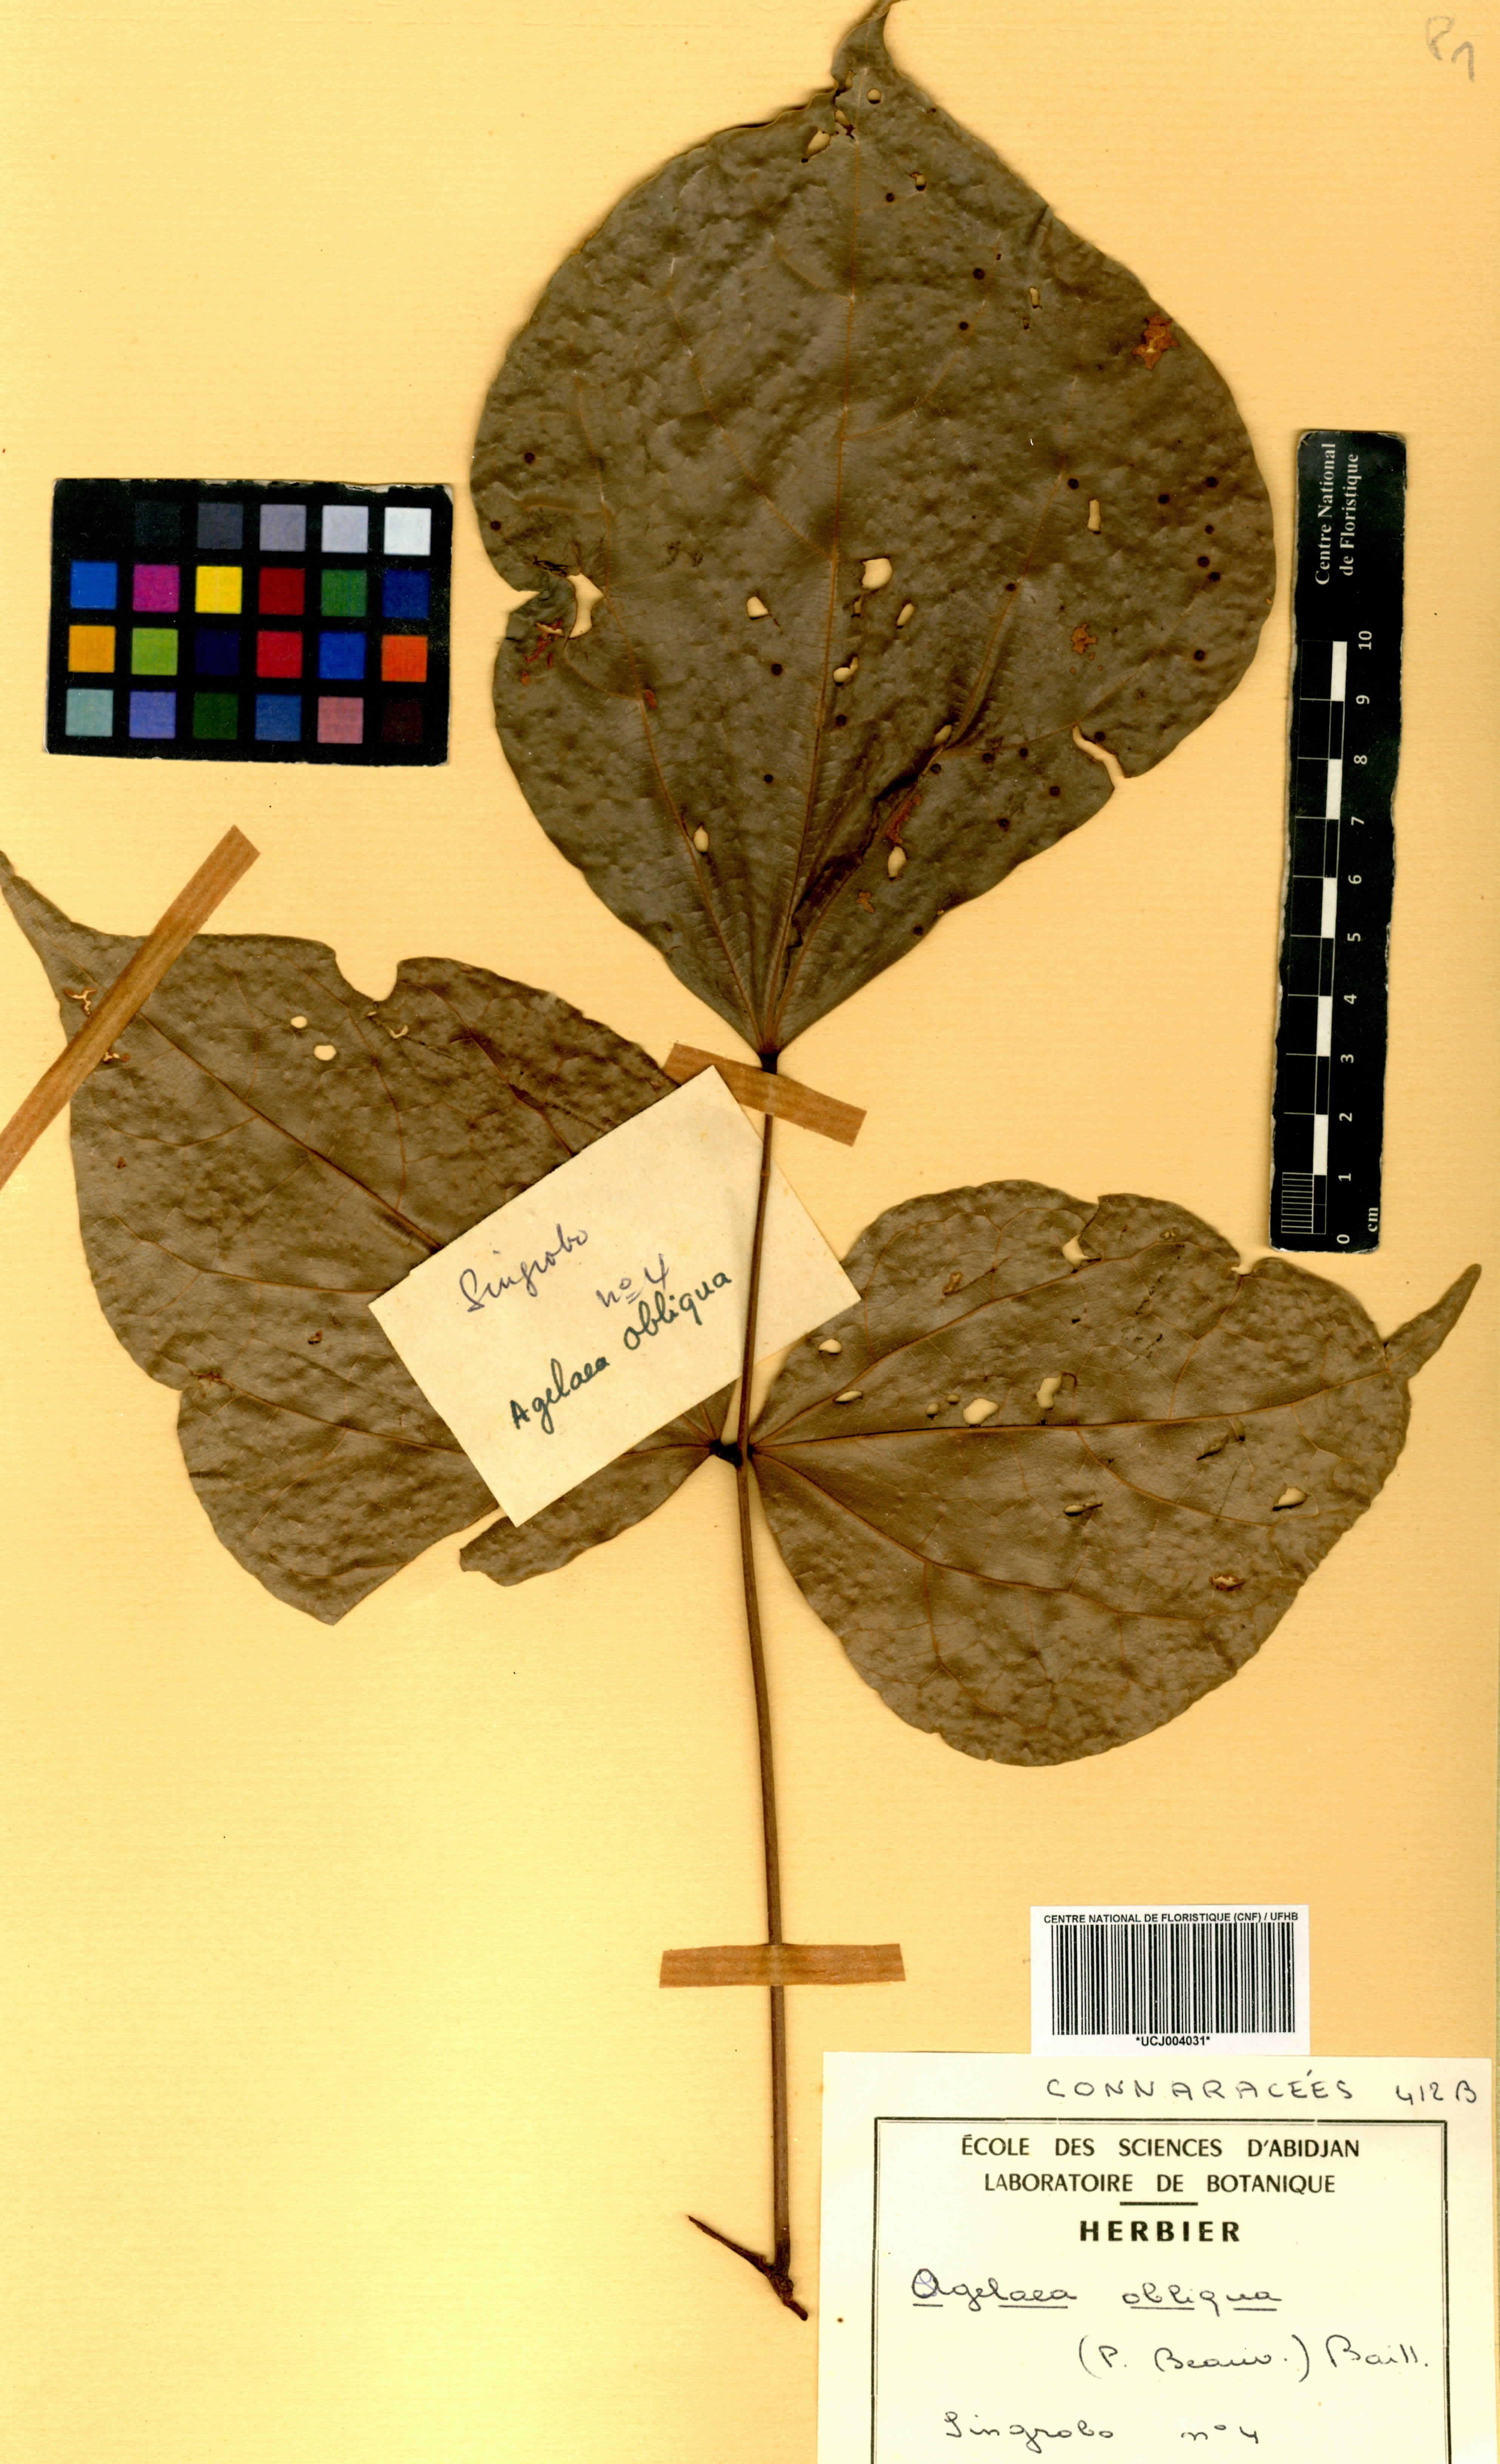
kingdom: Plantae
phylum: Tracheophyta
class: Magnoliopsida
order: Oxalidales
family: Connaraceae
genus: Agelaea
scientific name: Agelaea pentagyna
